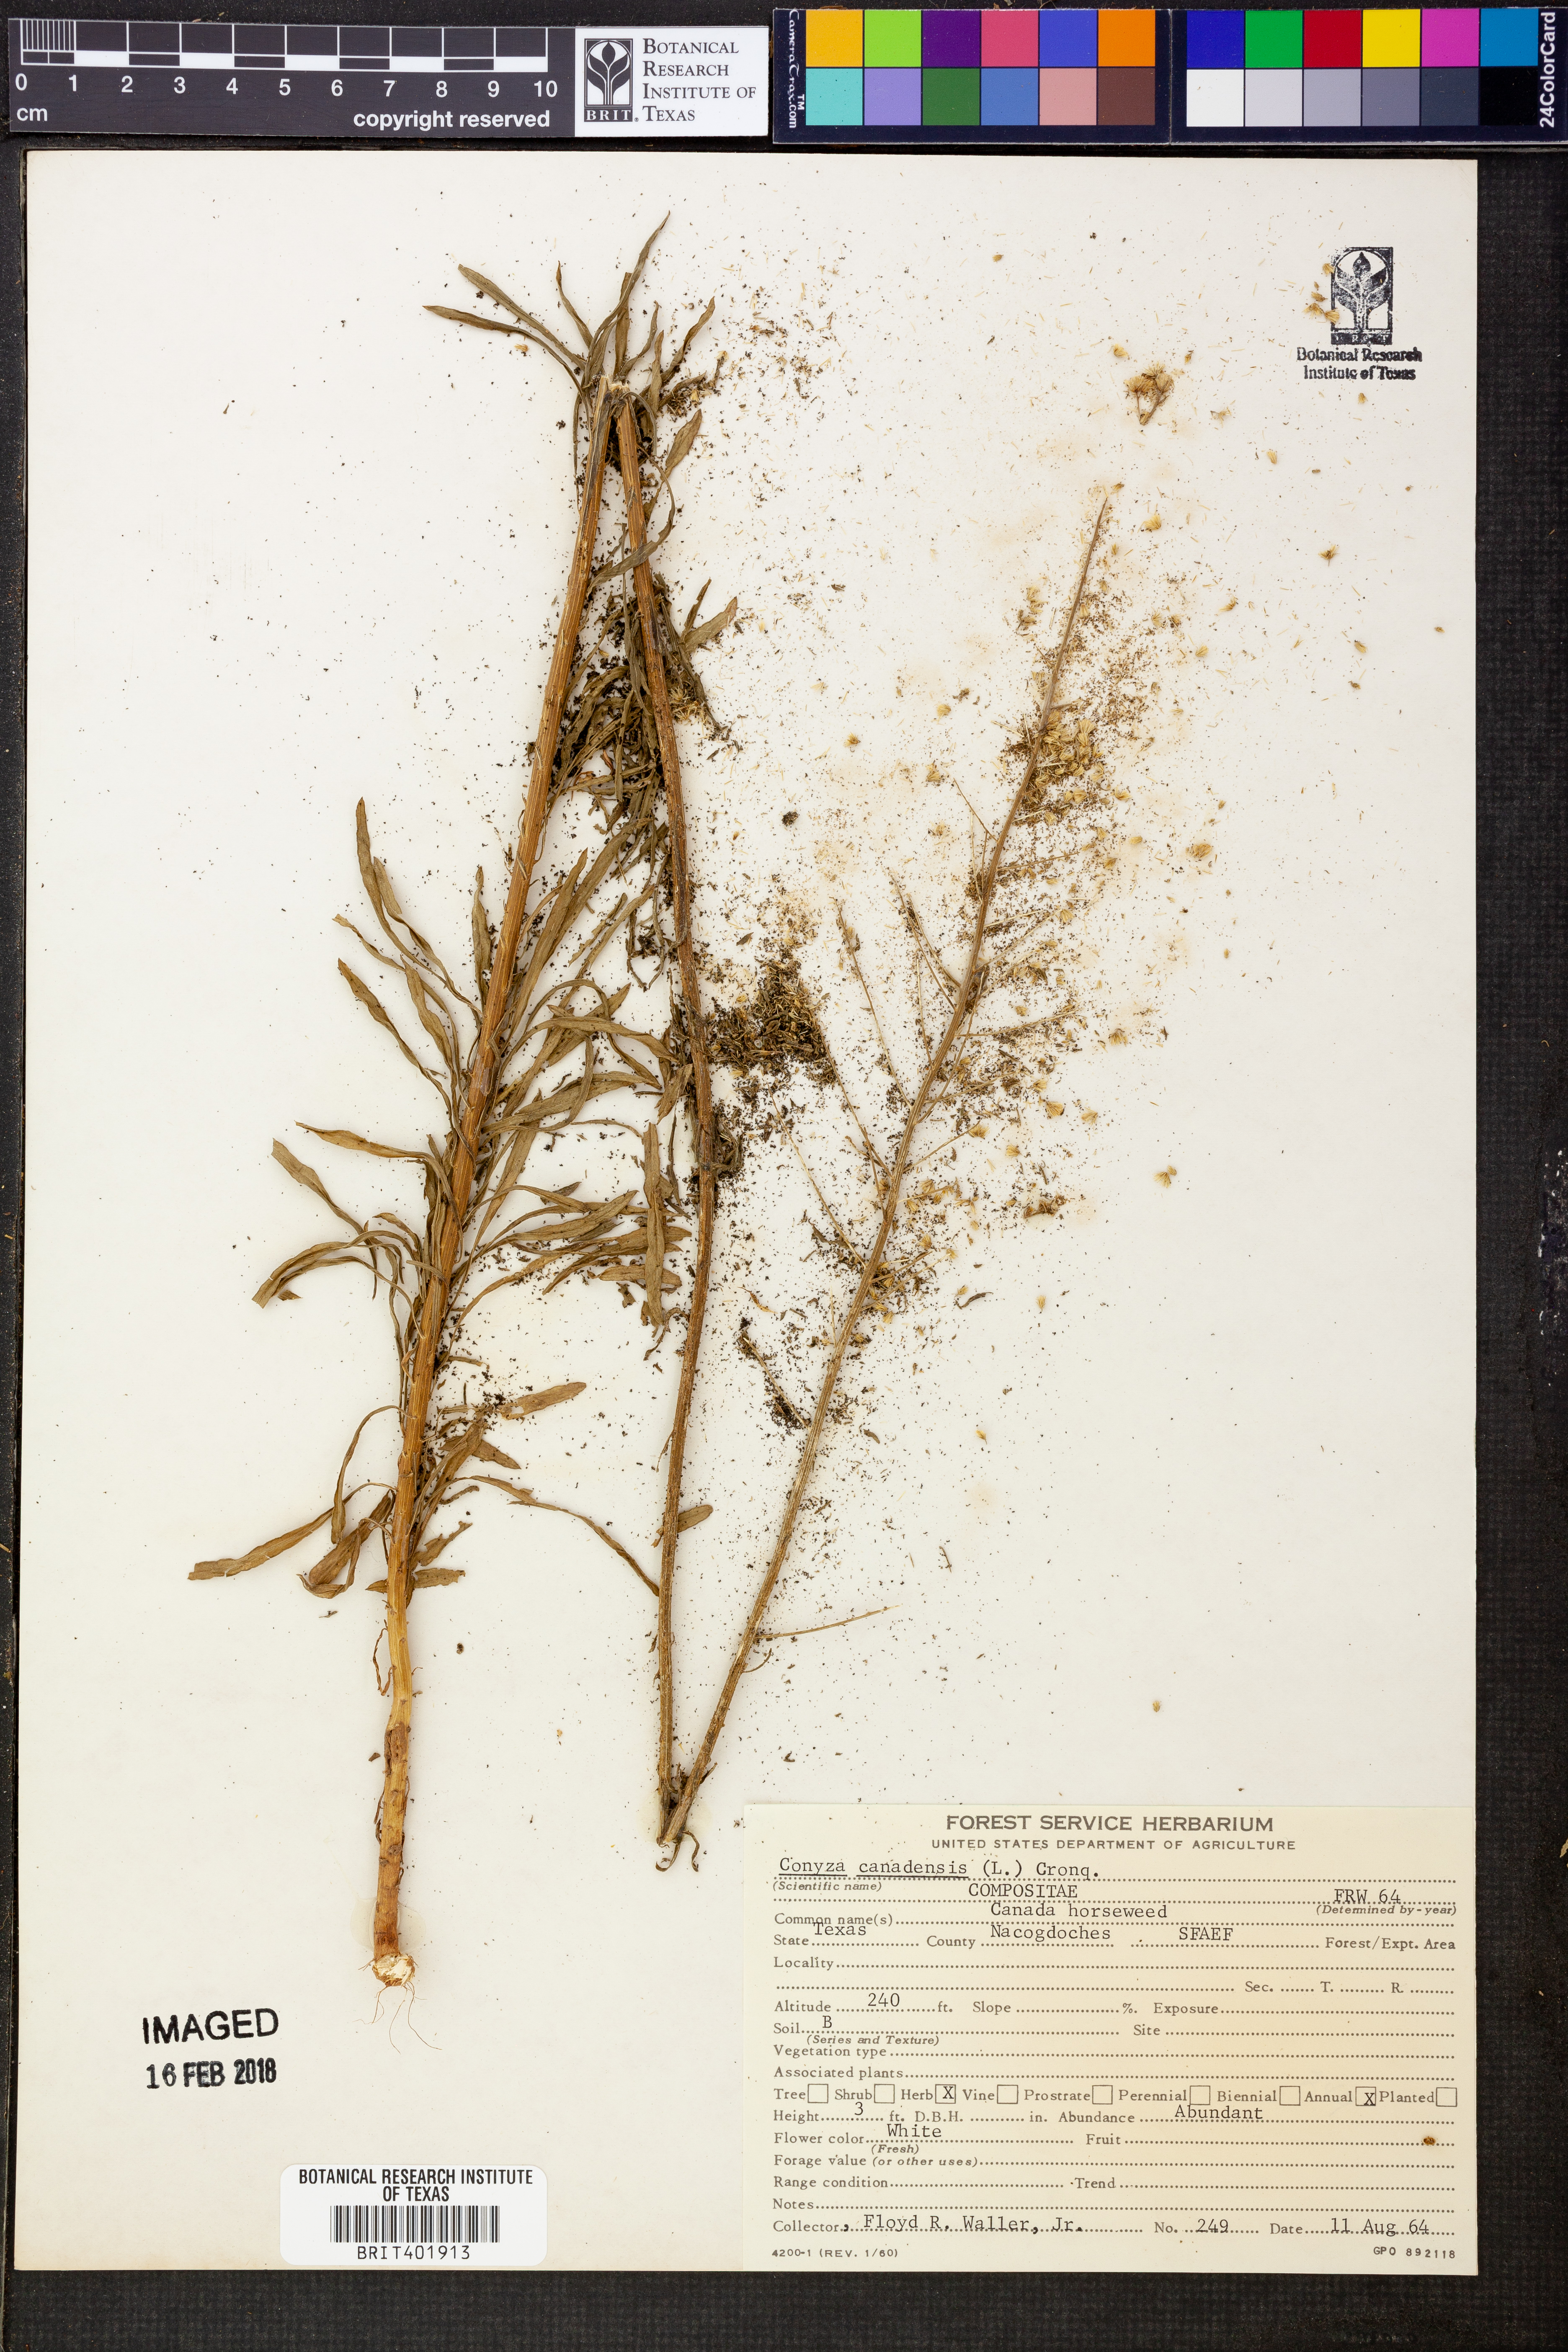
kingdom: Plantae
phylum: Tracheophyta
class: Magnoliopsida
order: Asterales
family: Asteraceae
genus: Erigeron
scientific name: Erigeron canadensis
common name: Canadian fleabane
